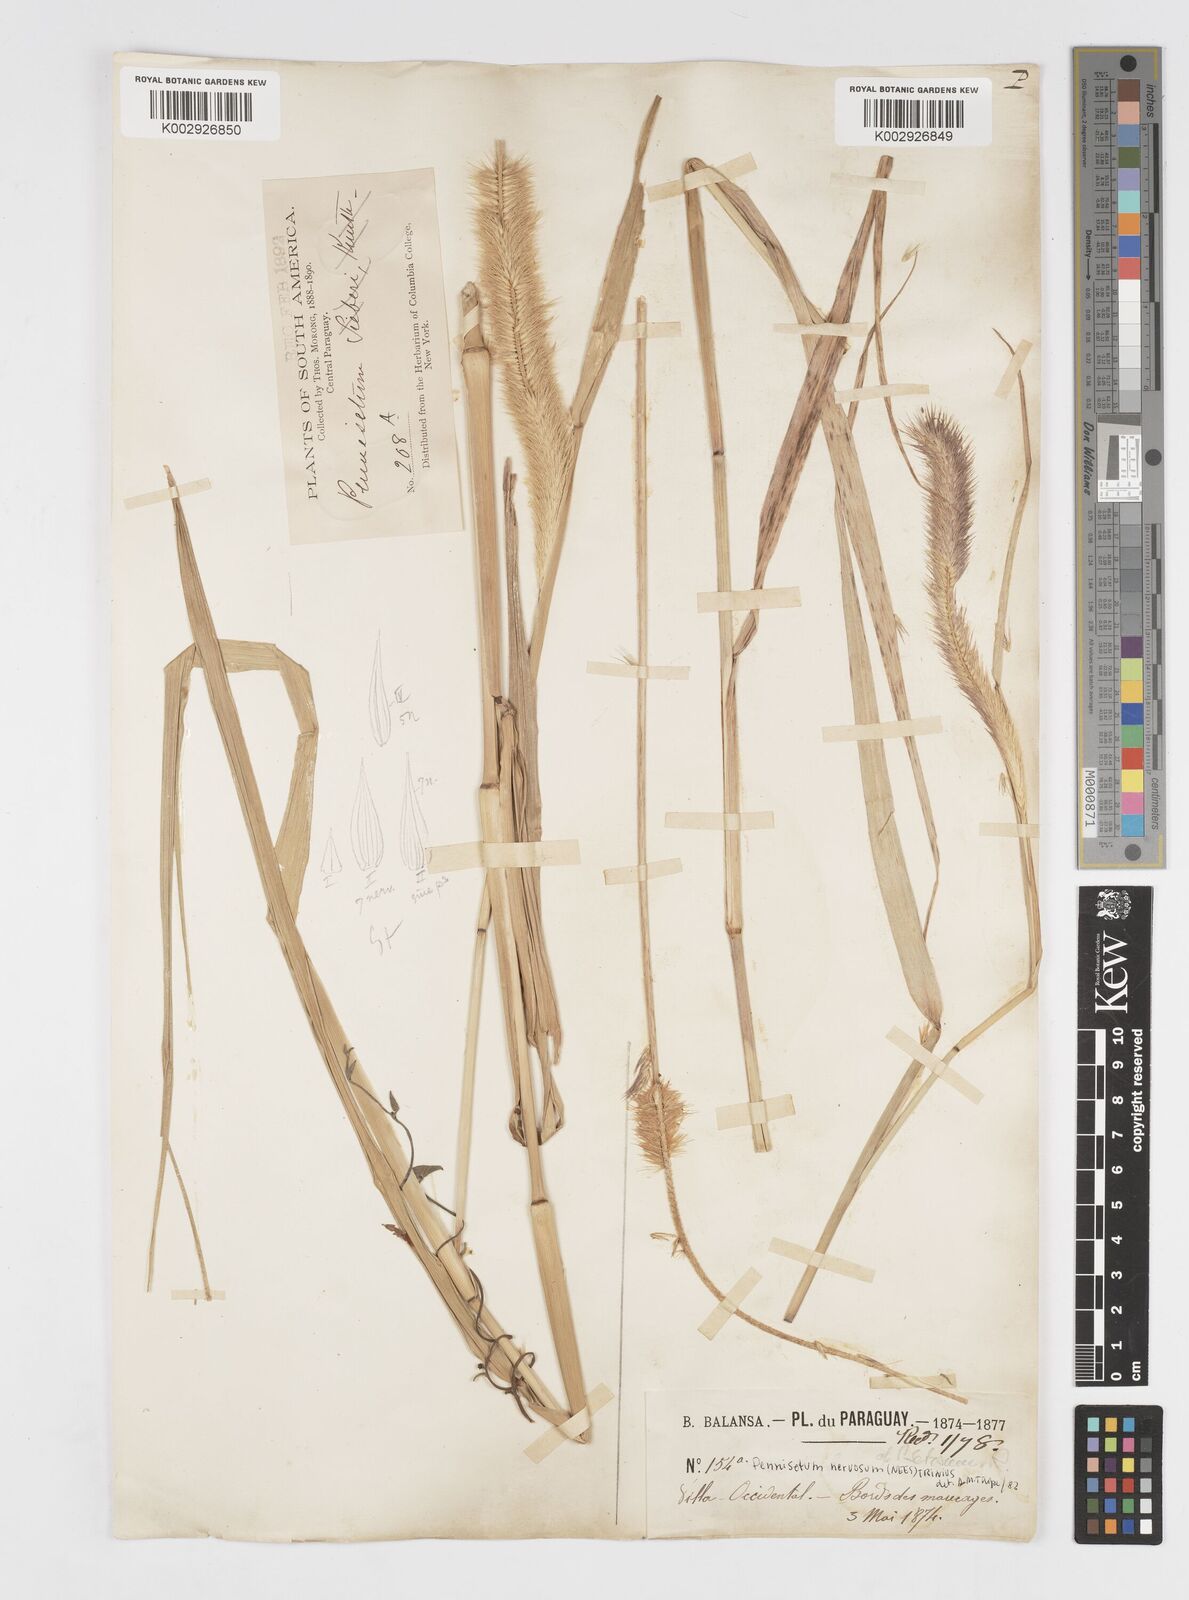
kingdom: Plantae
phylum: Tracheophyta
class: Liliopsida
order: Poales
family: Poaceae
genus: Cenchrus
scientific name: Cenchrus nervosus
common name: Bentspike fountaingrass
